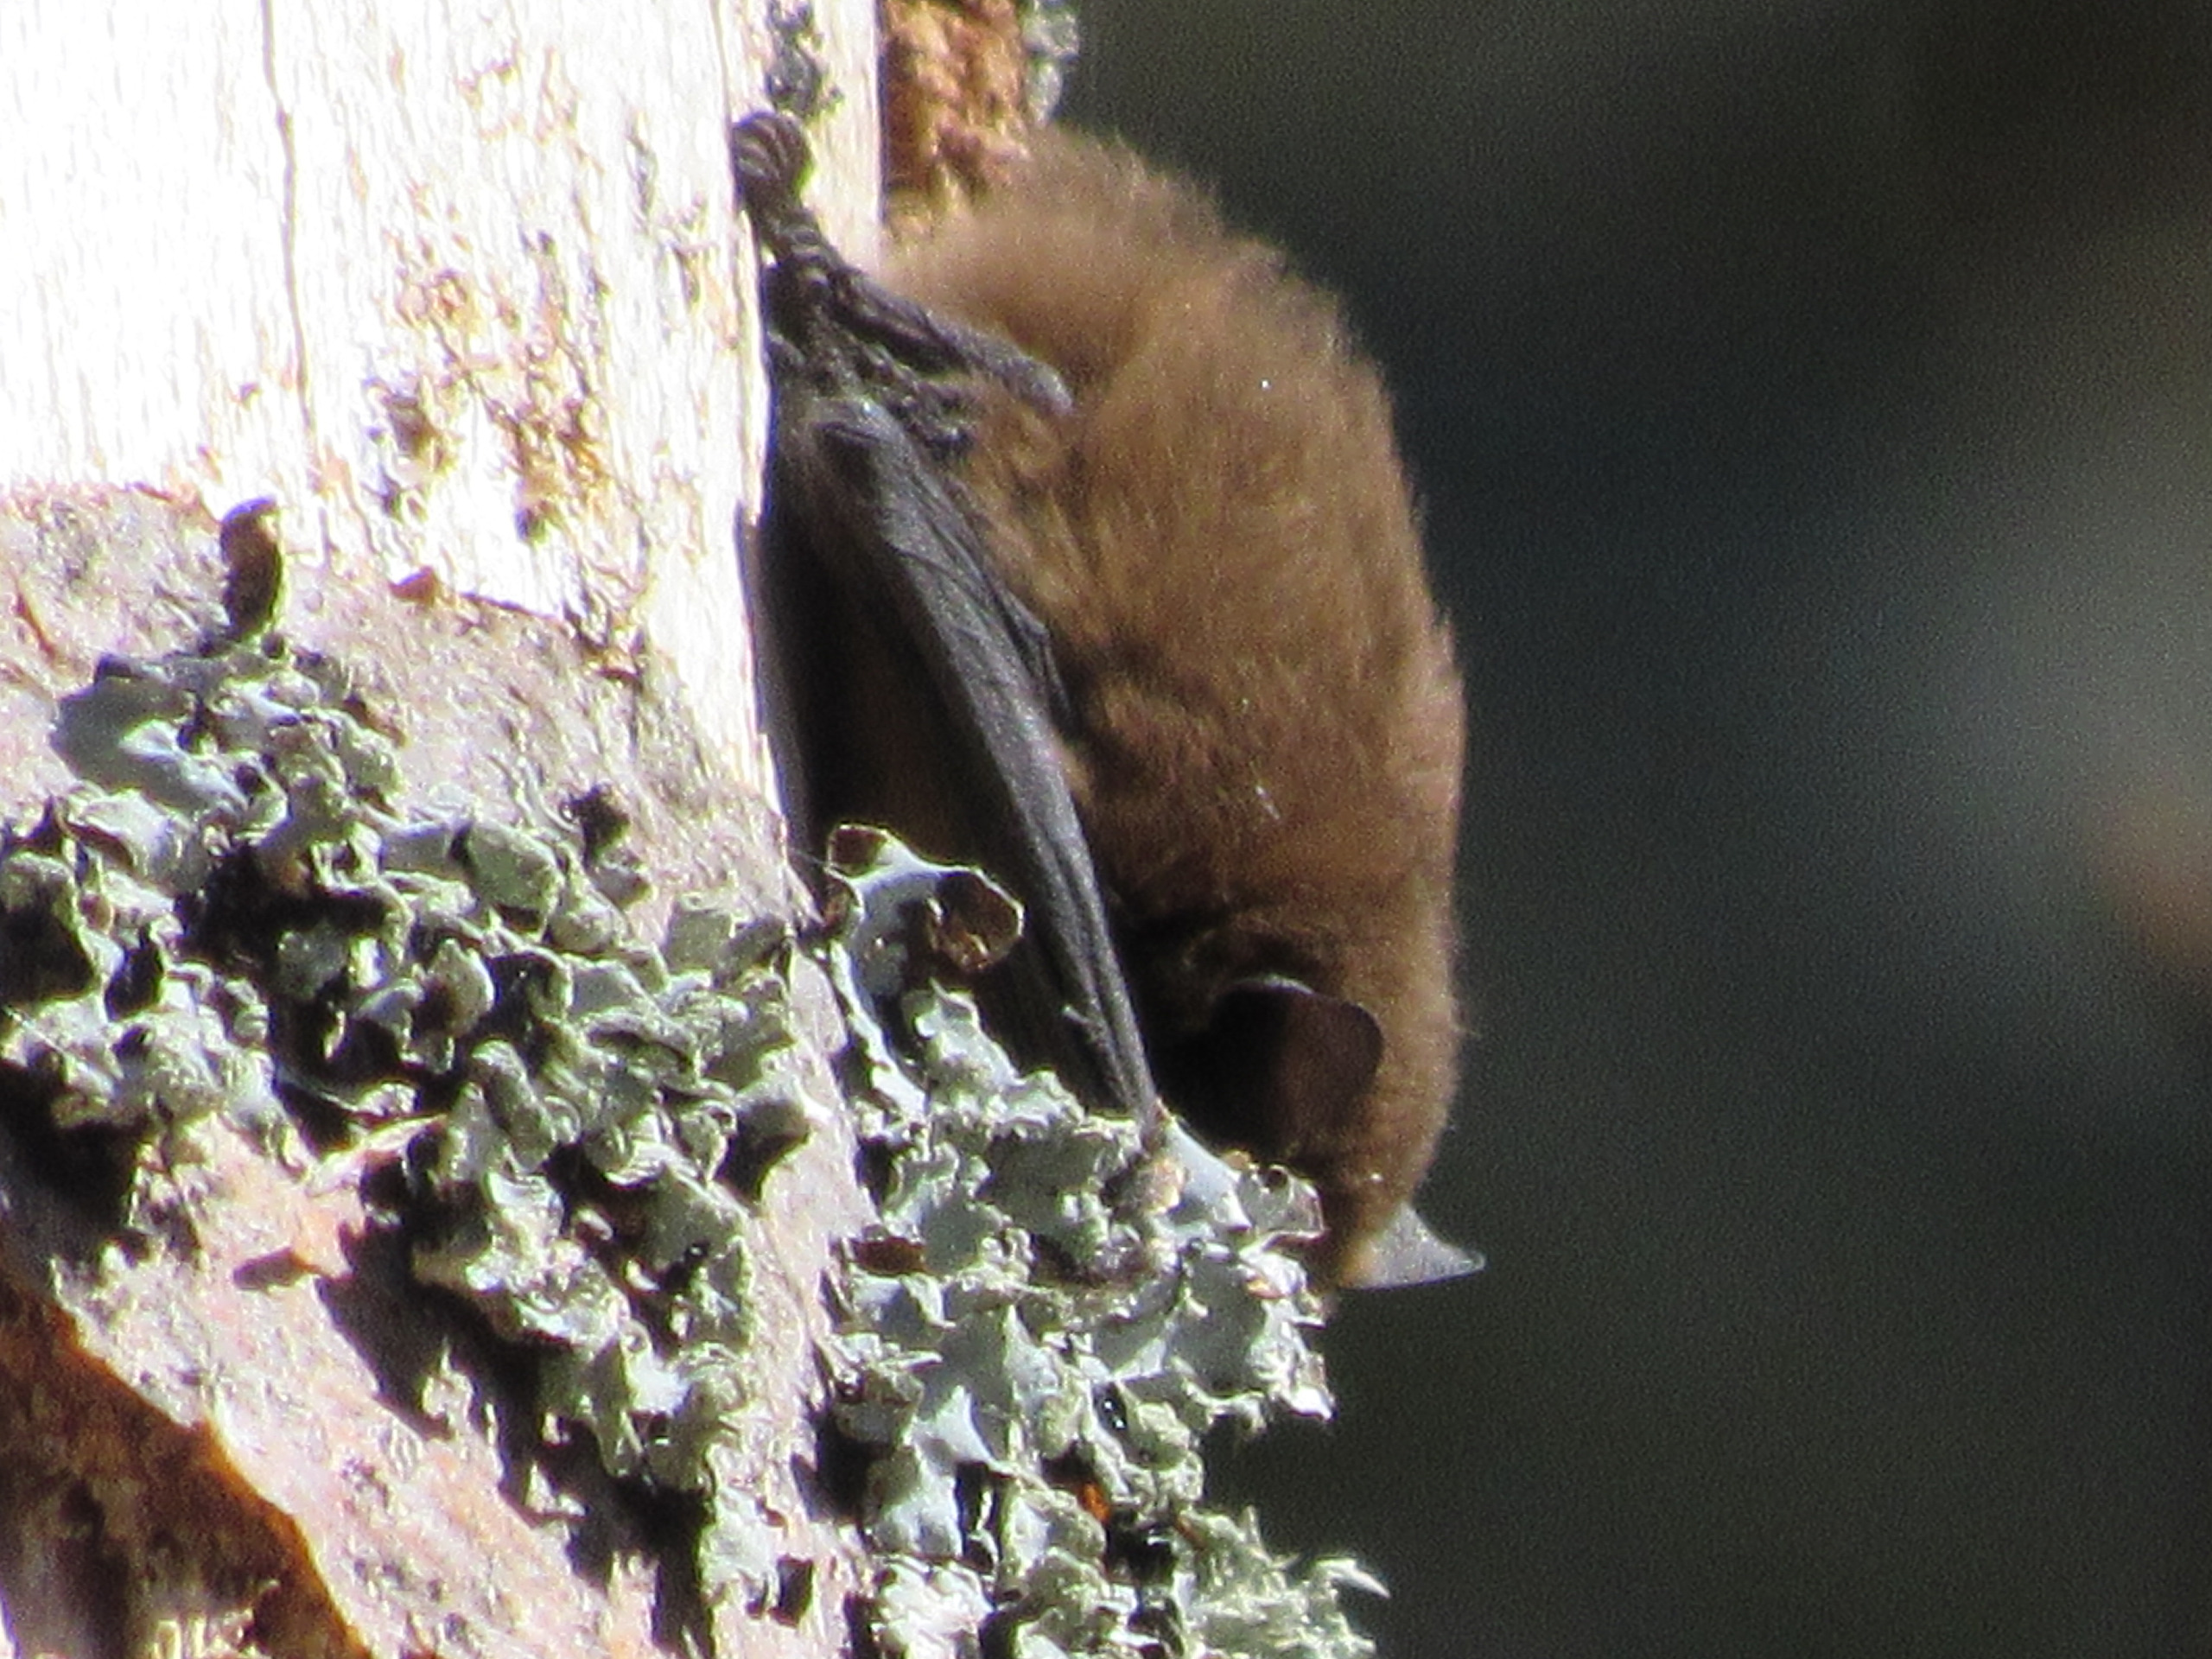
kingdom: Animalia
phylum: Chordata
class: Mammalia
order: Chiroptera
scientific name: Chiroptera
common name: Flagermus
